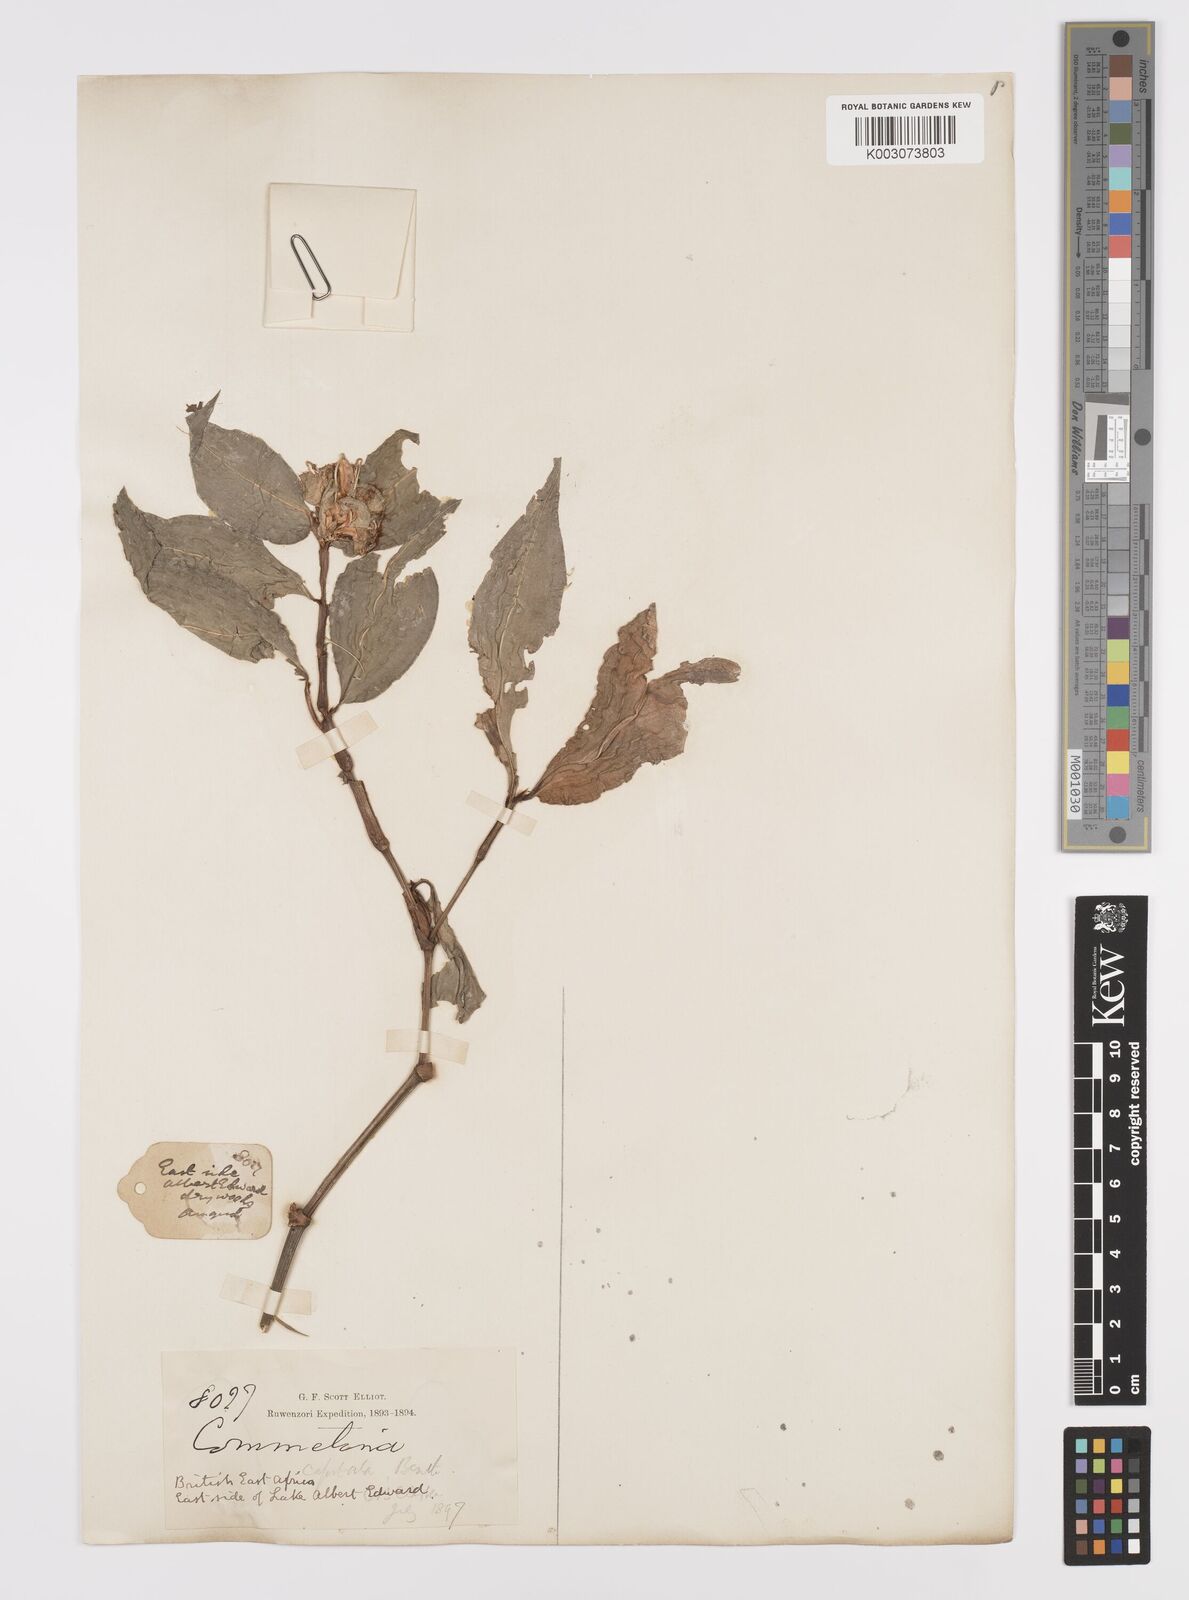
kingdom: Plantae
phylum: Tracheophyta
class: Liliopsida
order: Commelinales
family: Commelinaceae
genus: Commelina
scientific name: Commelina capitata
